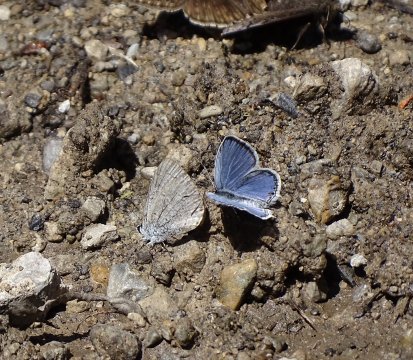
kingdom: Animalia
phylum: Arthropoda
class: Insecta
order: Lepidoptera
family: Lycaenidae
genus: Elkalyce
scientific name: Elkalyce comyntas
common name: Eastern Tailed-Blue
